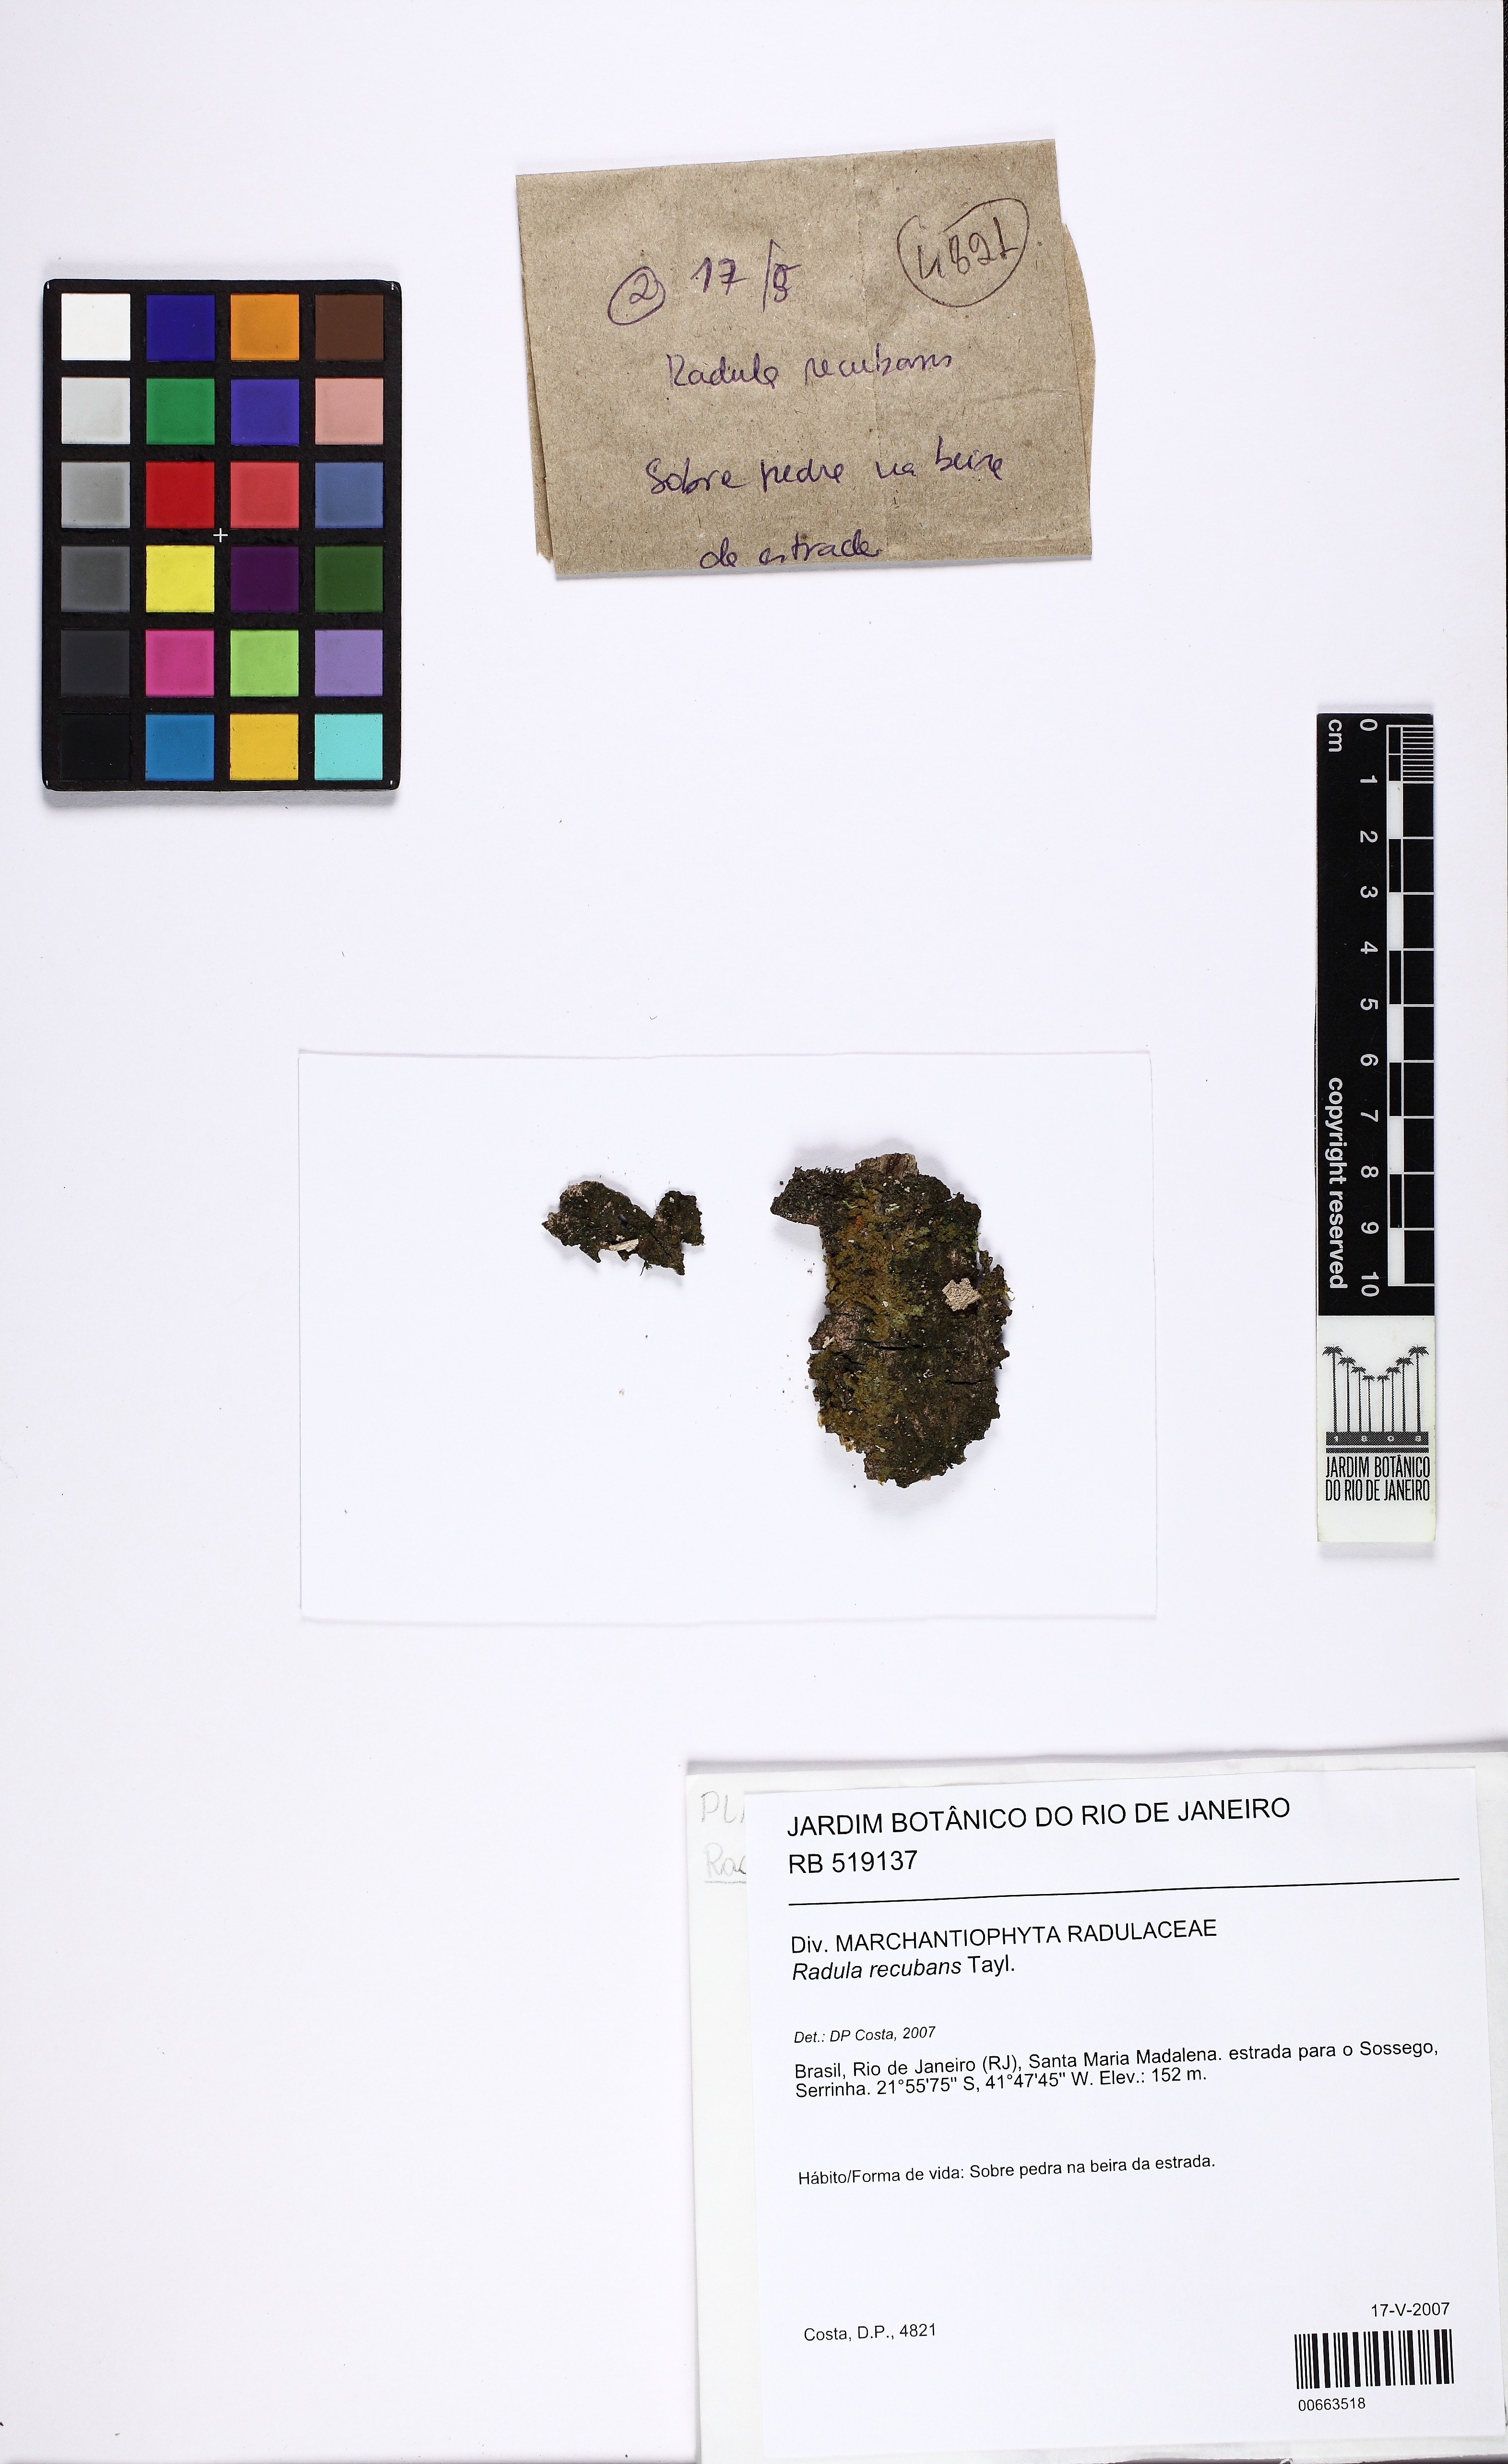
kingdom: Plantae
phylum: Marchantiophyta
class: Jungermanniopsida
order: Porellales
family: Radulaceae
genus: Radula
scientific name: Radula recubans
